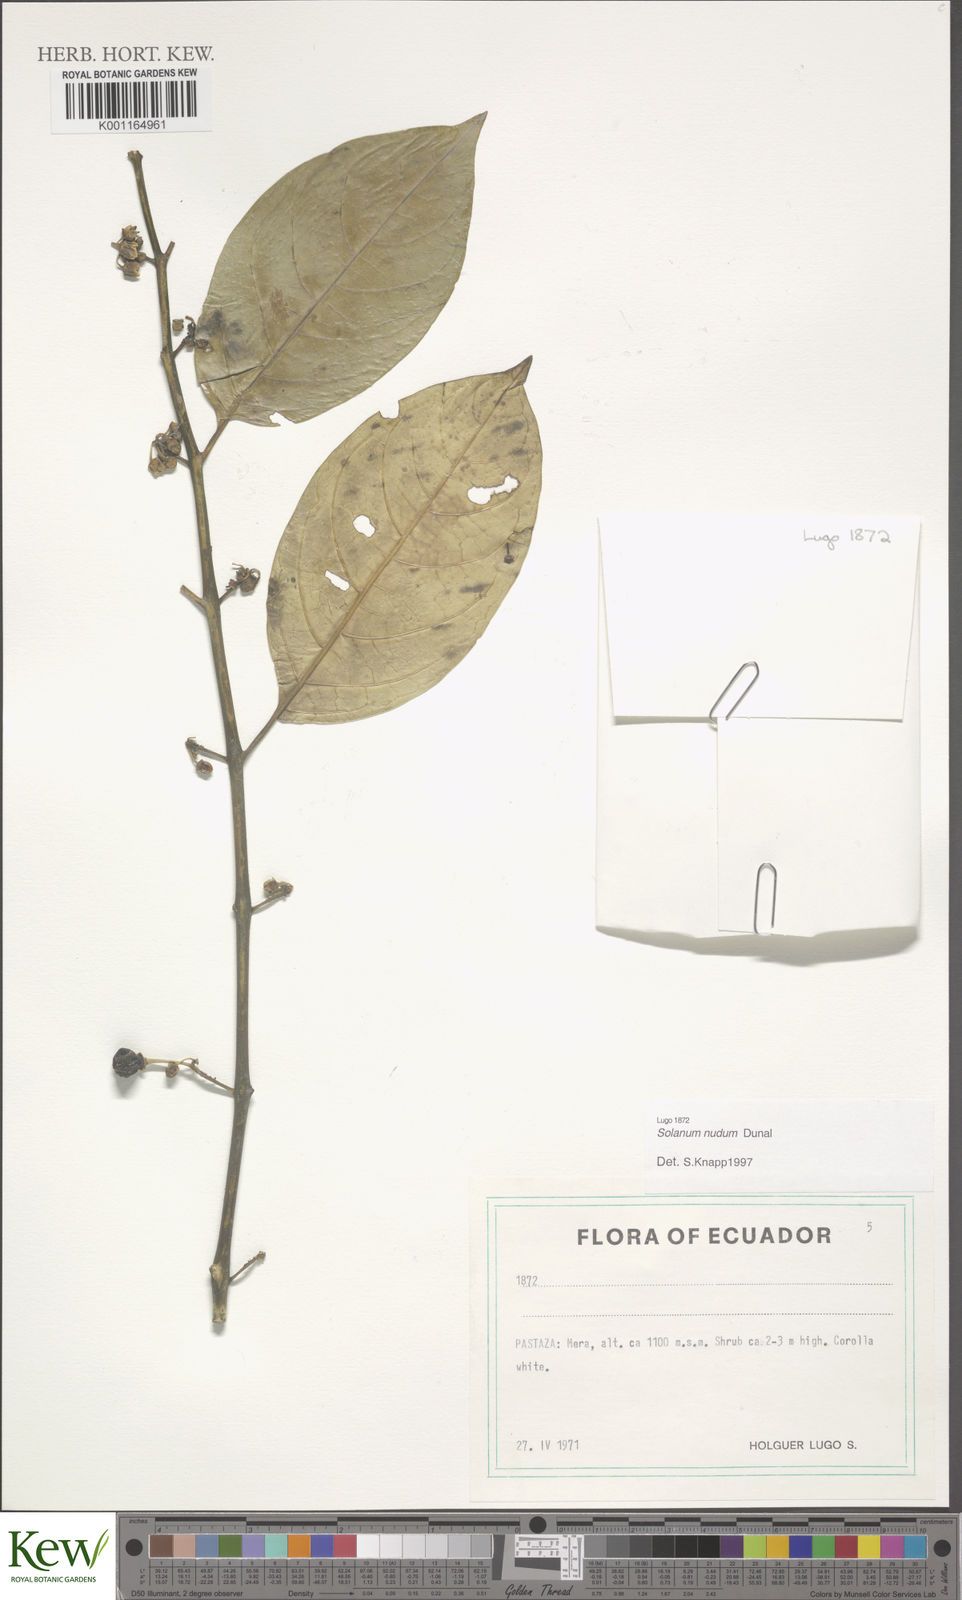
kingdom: Plantae
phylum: Tracheophyta
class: Magnoliopsida
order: Solanales
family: Solanaceae
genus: Solanum
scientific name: Solanum nudum
